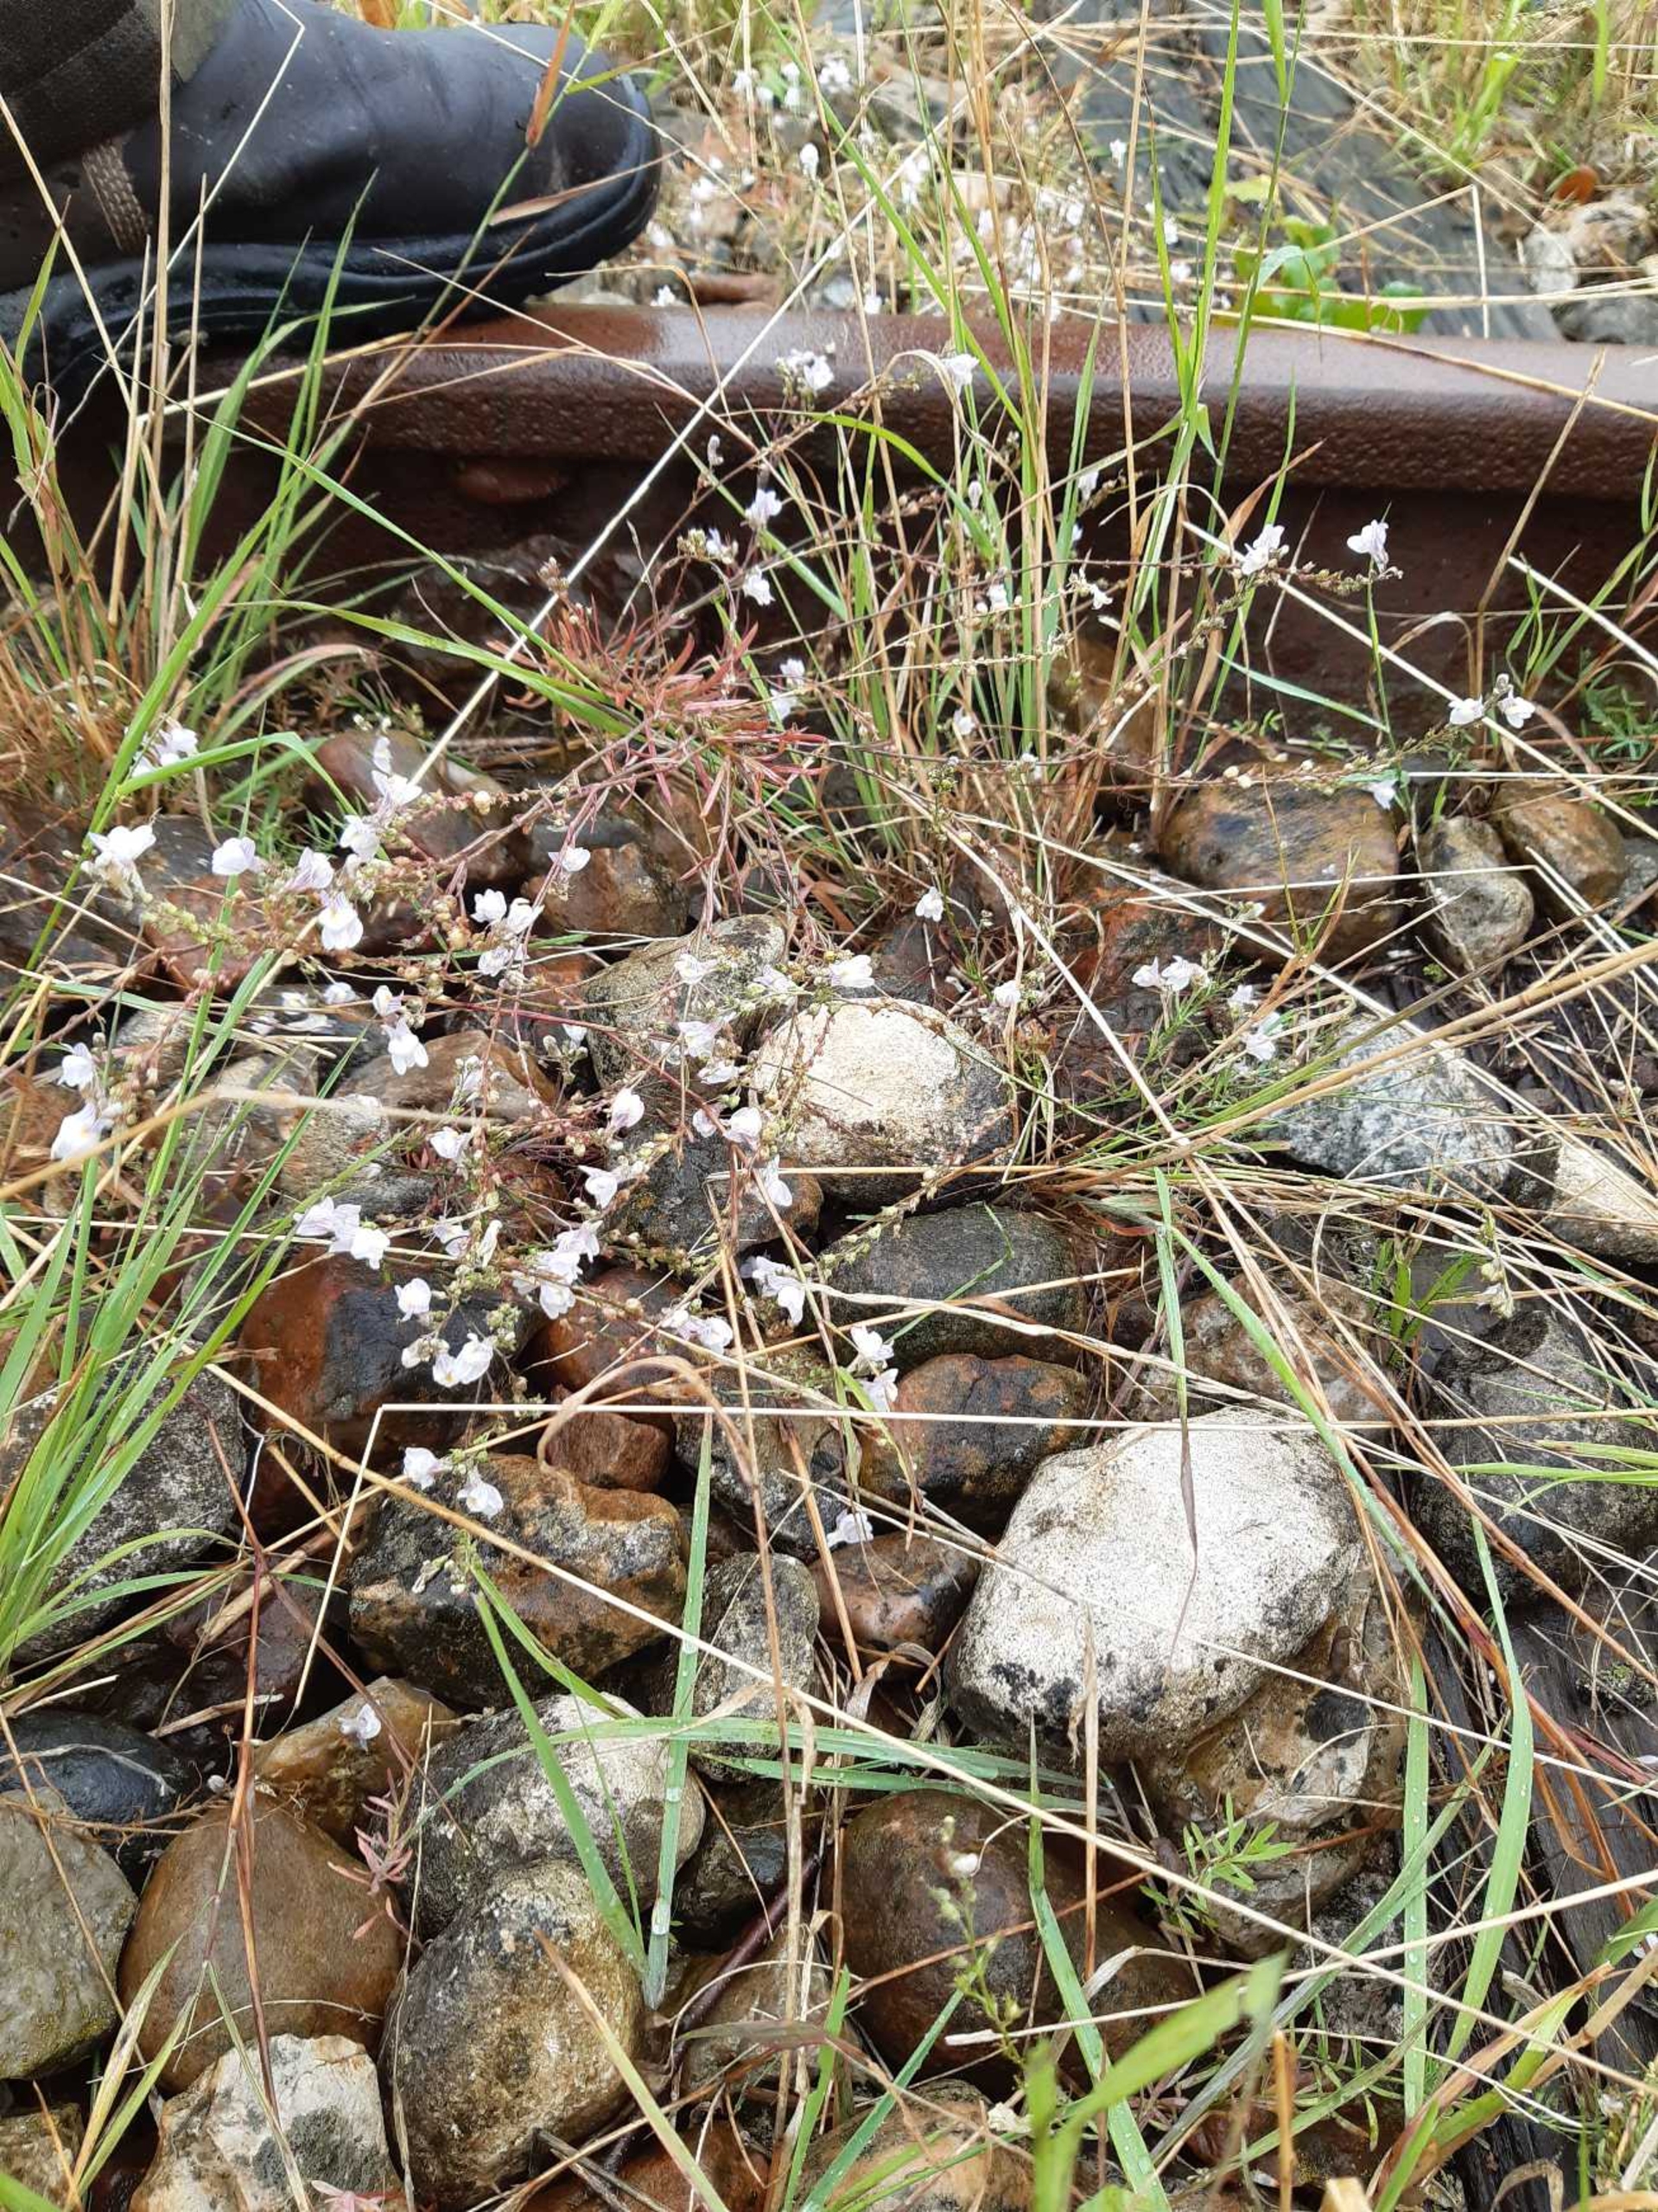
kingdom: Plantae
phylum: Tracheophyta
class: Magnoliopsida
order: Lamiales
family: Plantaginaceae
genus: Linaria
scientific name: Linaria repens
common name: Stribet torskemund
